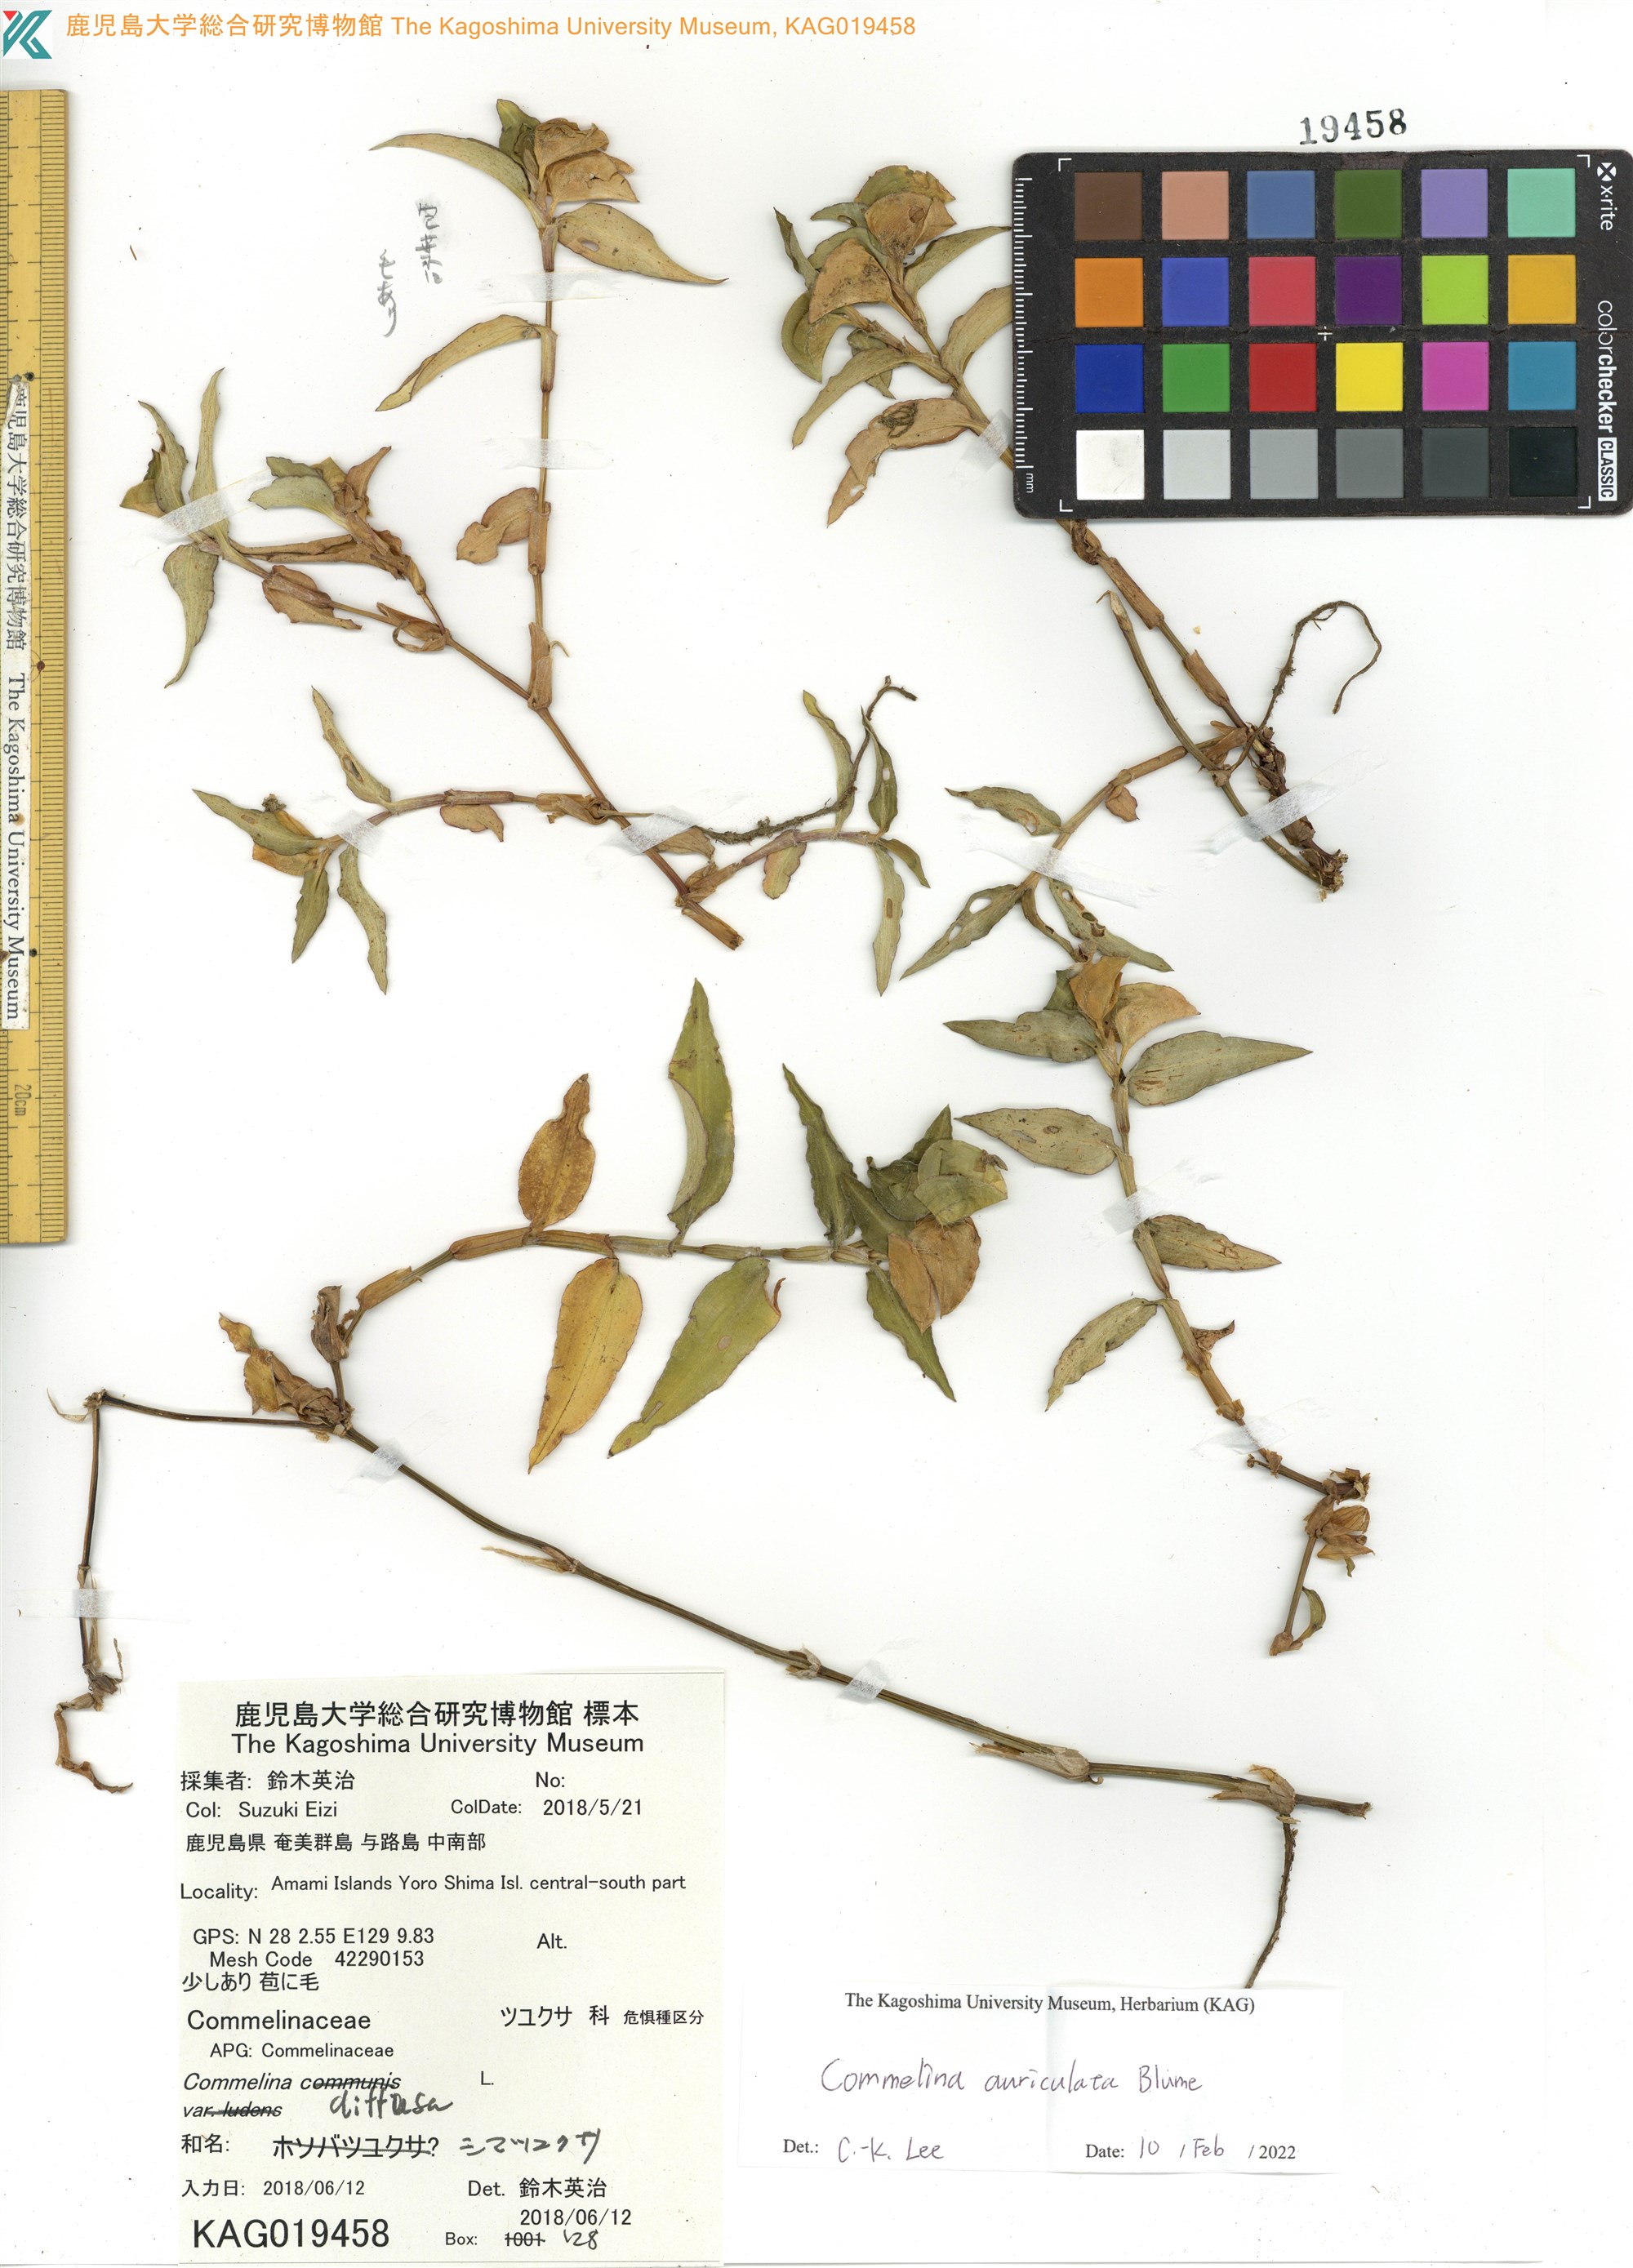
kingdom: Plantae
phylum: Tracheophyta
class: Liliopsida
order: Commelinales
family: Commelinaceae
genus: Commelina
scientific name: Commelina diffusa
